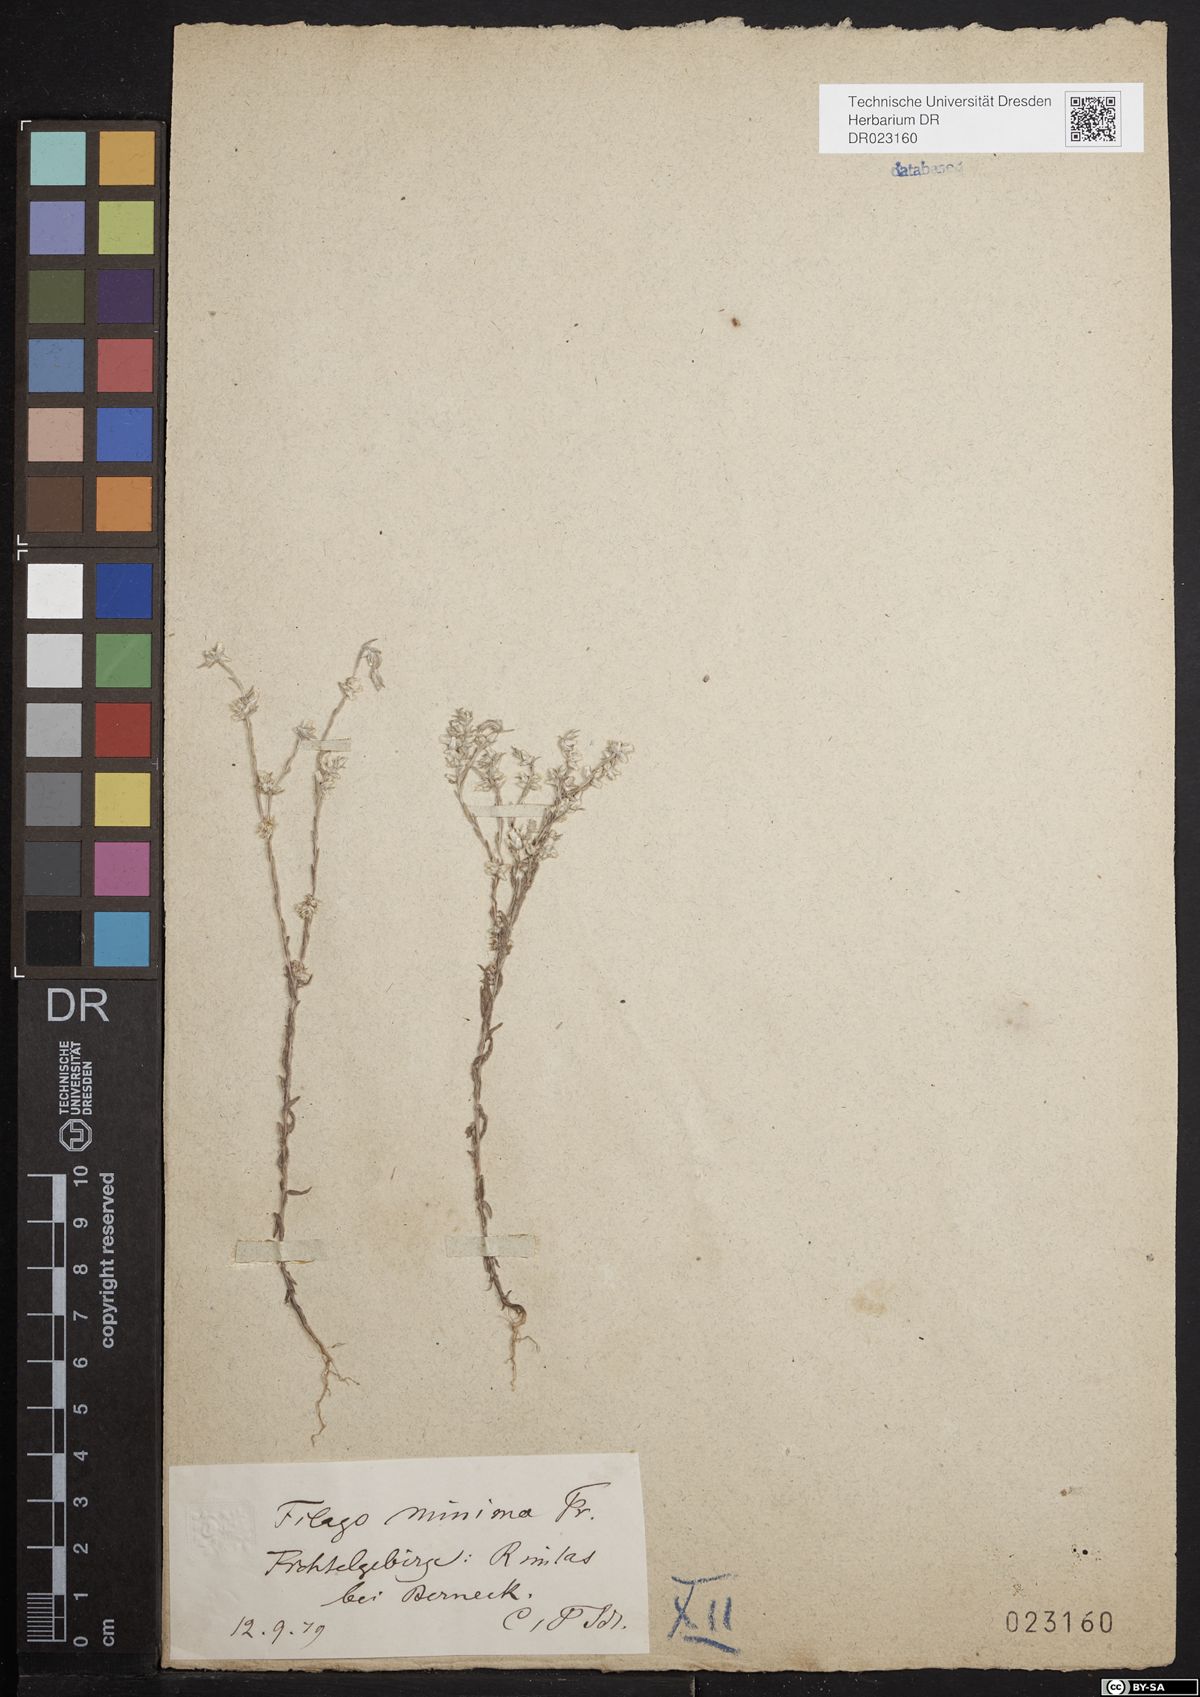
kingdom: Plantae
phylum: Tracheophyta
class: Magnoliopsida
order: Asterales
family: Asteraceae
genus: Logfia
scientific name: Logfia minima
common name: Little cottonrose
